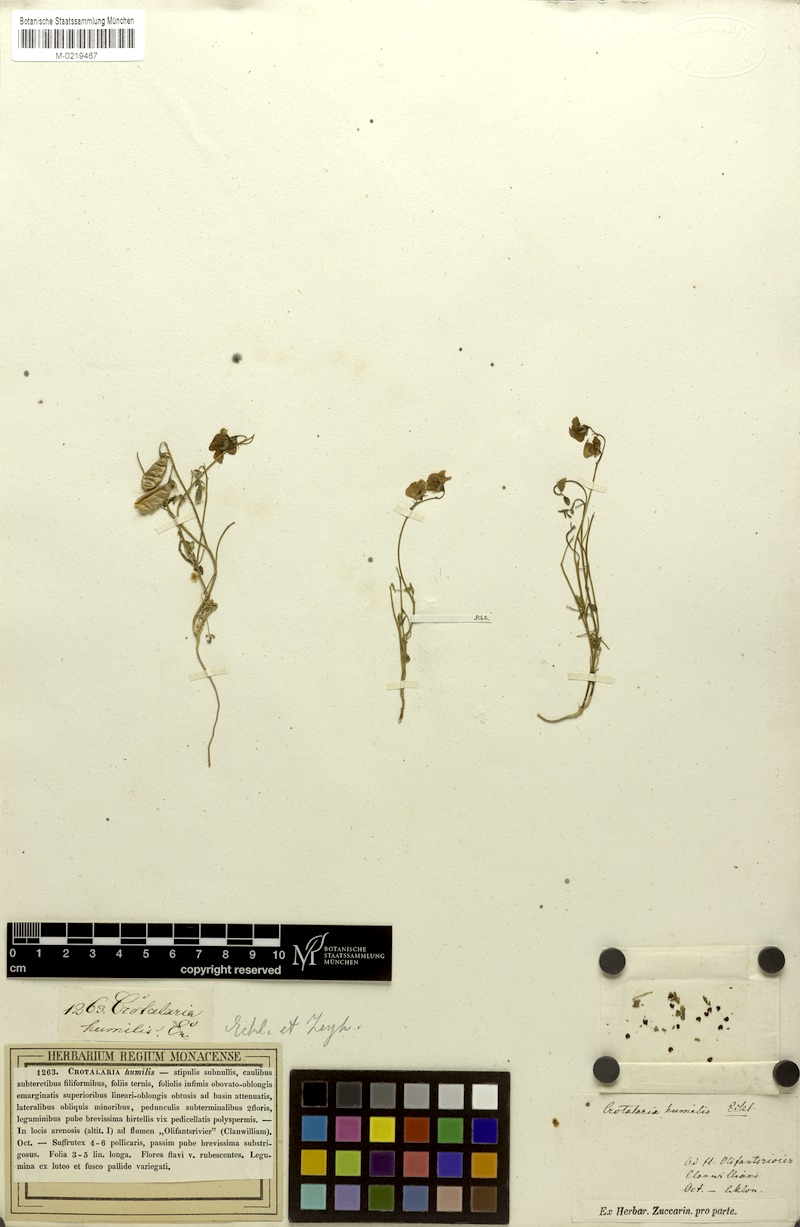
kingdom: Plantae
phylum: Tracheophyta
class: Magnoliopsida
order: Fabales
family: Fabaceae
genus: Crotalaria
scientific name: Crotalaria humilis
